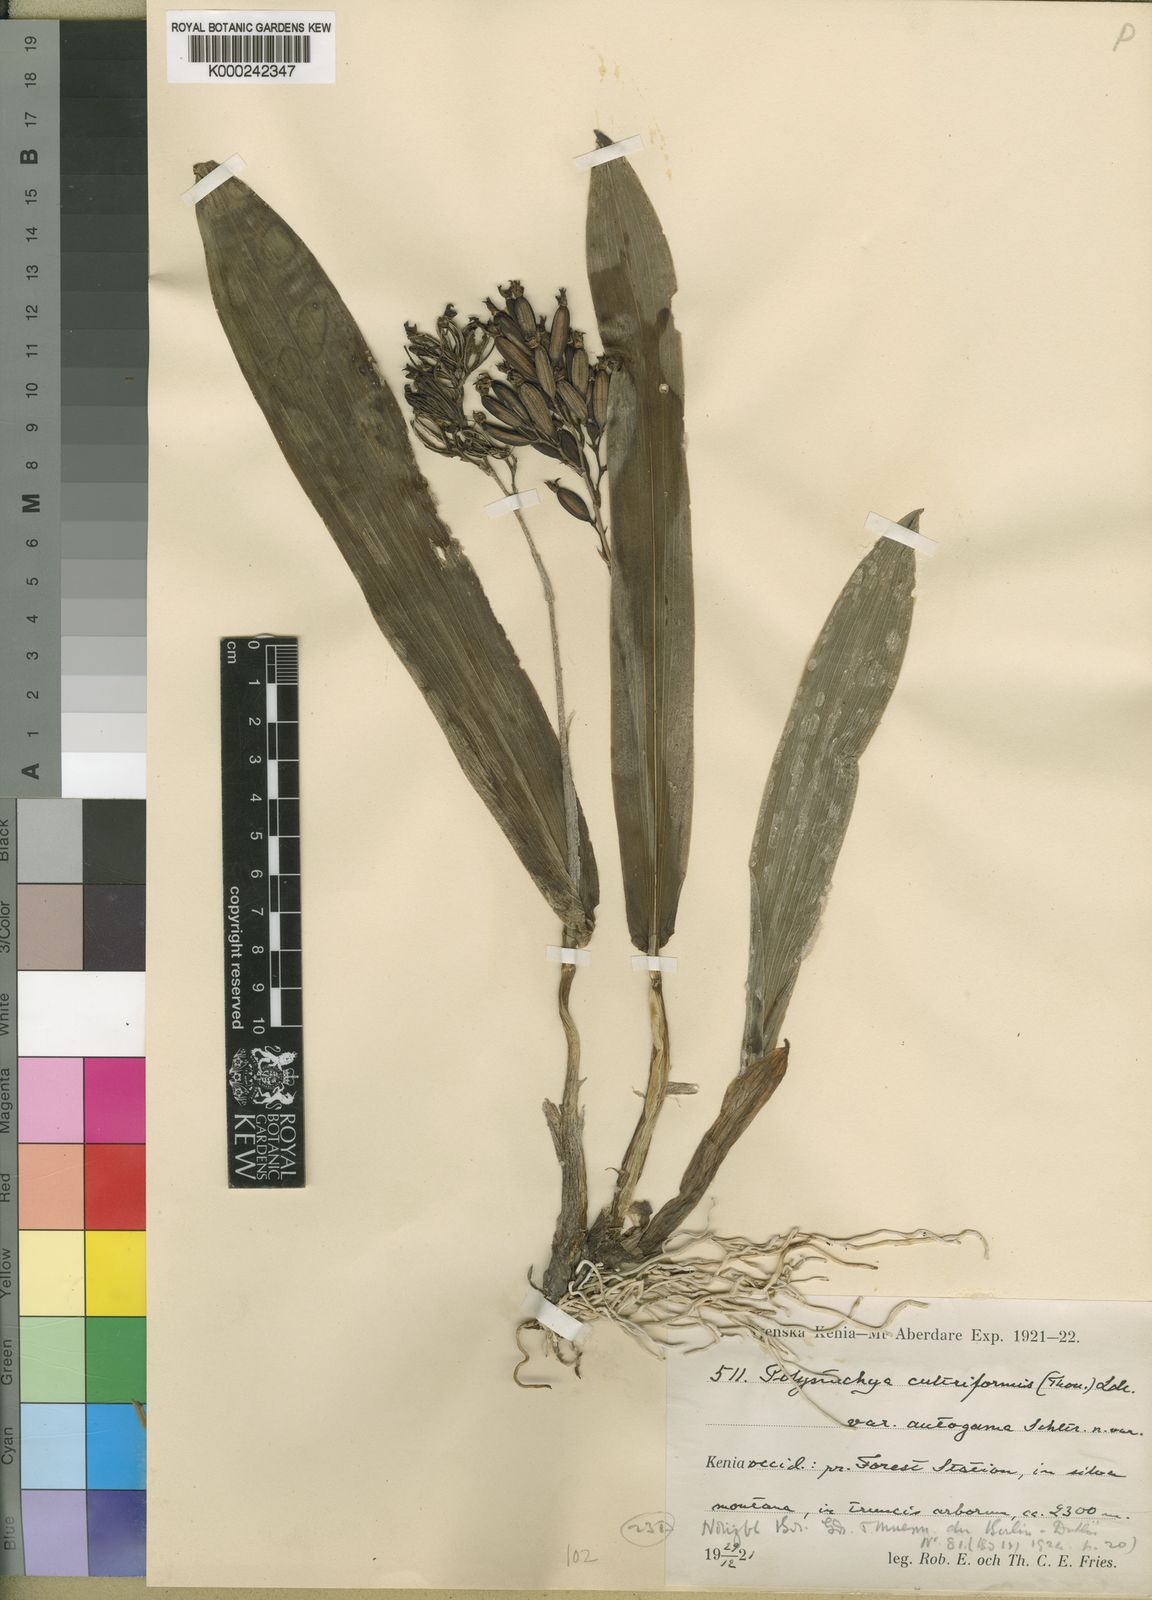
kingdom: Plantae
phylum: Tracheophyta
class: Liliopsida
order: Asparagales
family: Orchidaceae
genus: Polystachya
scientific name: Polystachya cultriformis
